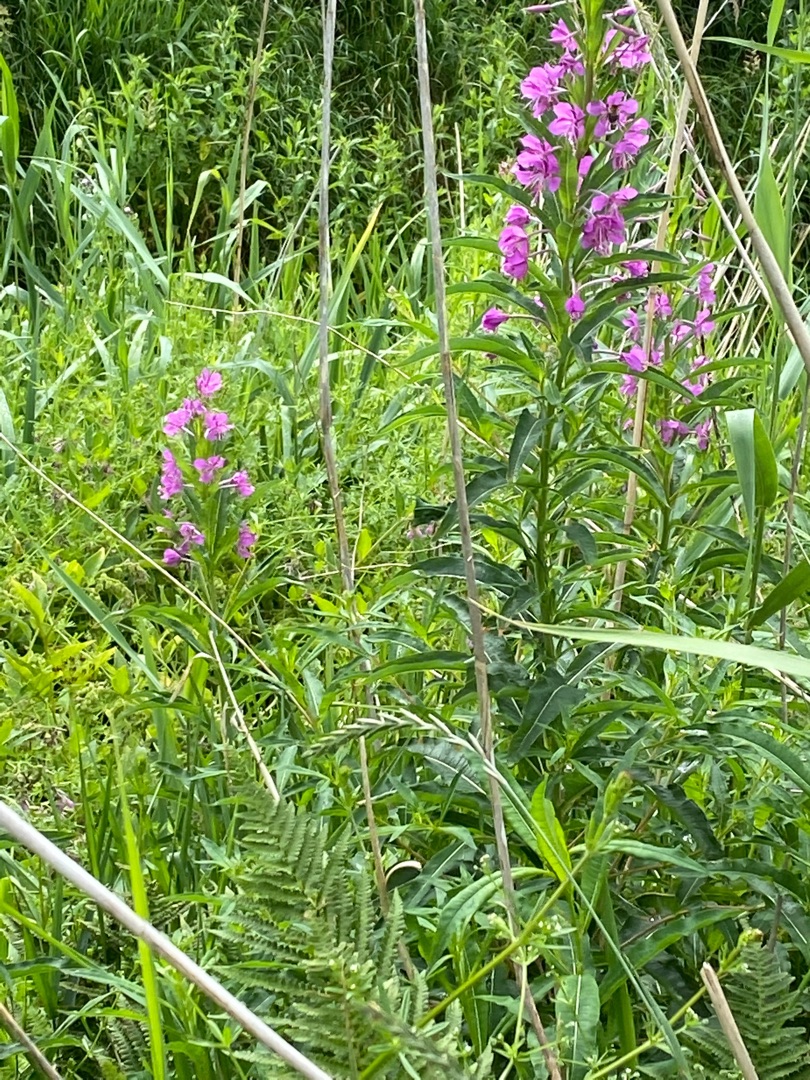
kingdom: Plantae
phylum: Tracheophyta
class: Magnoliopsida
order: Myrtales
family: Onagraceae
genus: Chamaenerion
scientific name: Chamaenerion angustifolium
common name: Gederams
